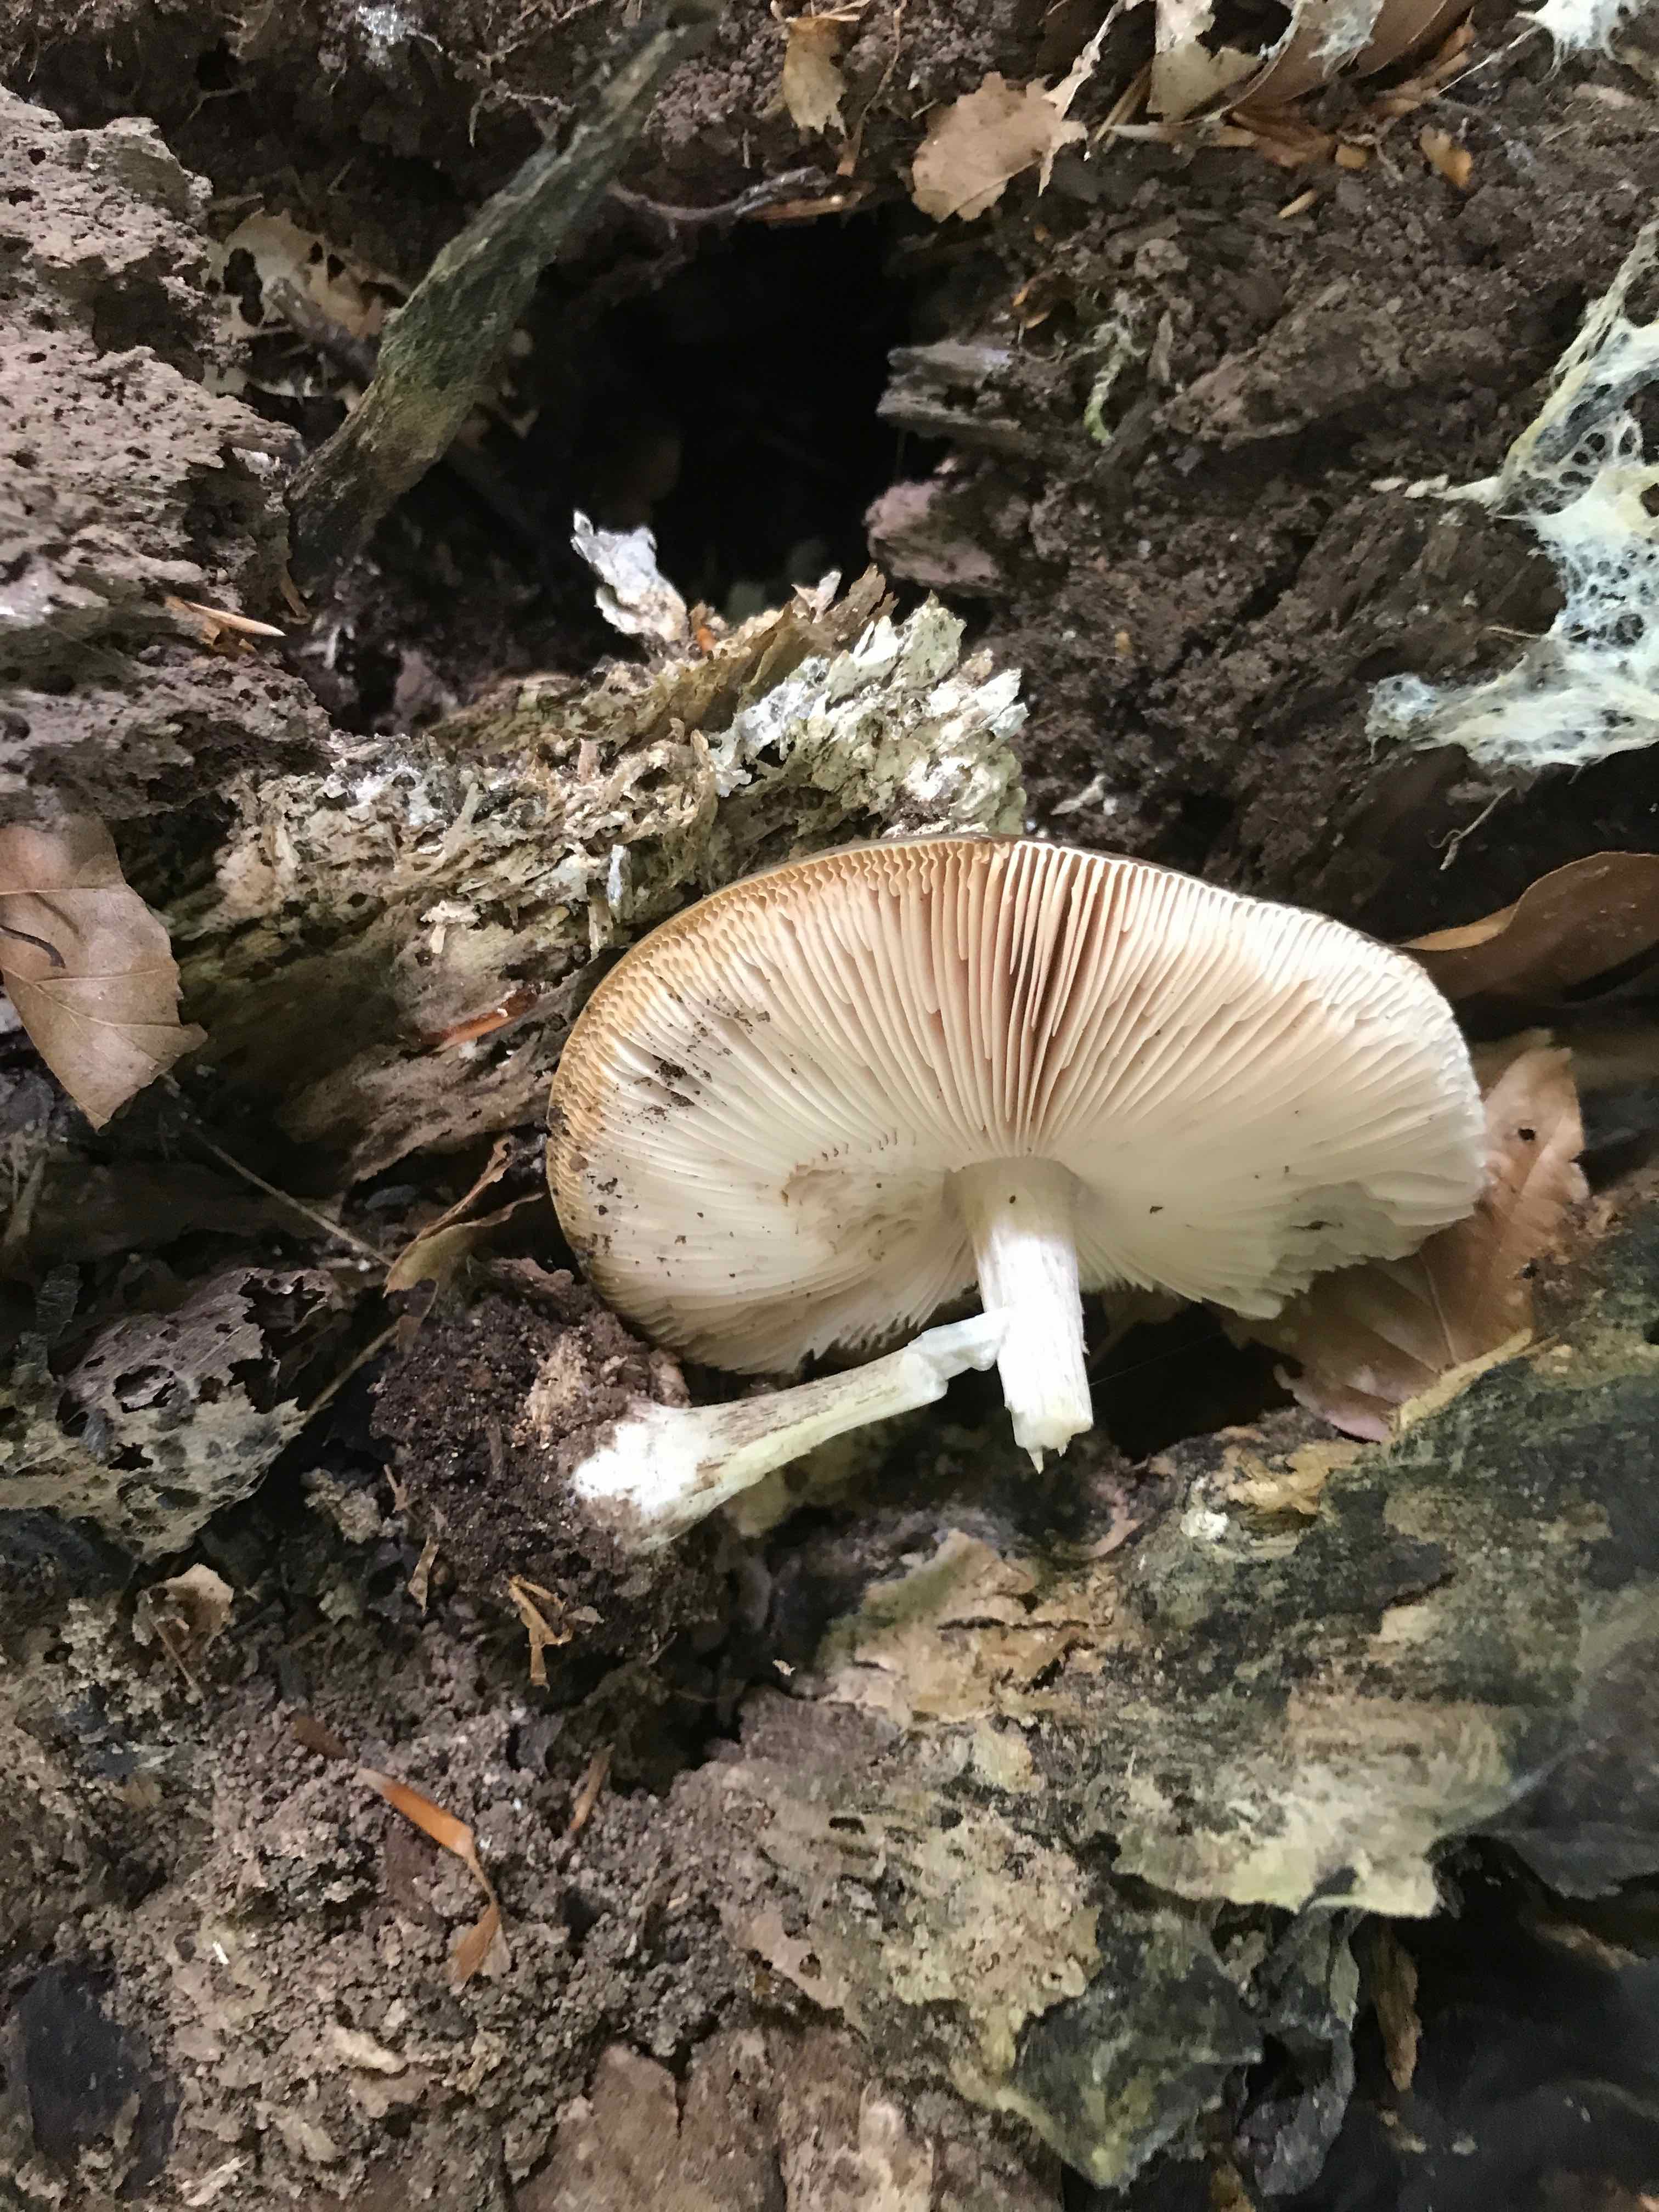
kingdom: Fungi
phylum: Basidiomycota
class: Agaricomycetes
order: Agaricales
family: Pluteaceae
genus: Pluteus
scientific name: Pluteus cervinus
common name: sodfarvet skærmhat
